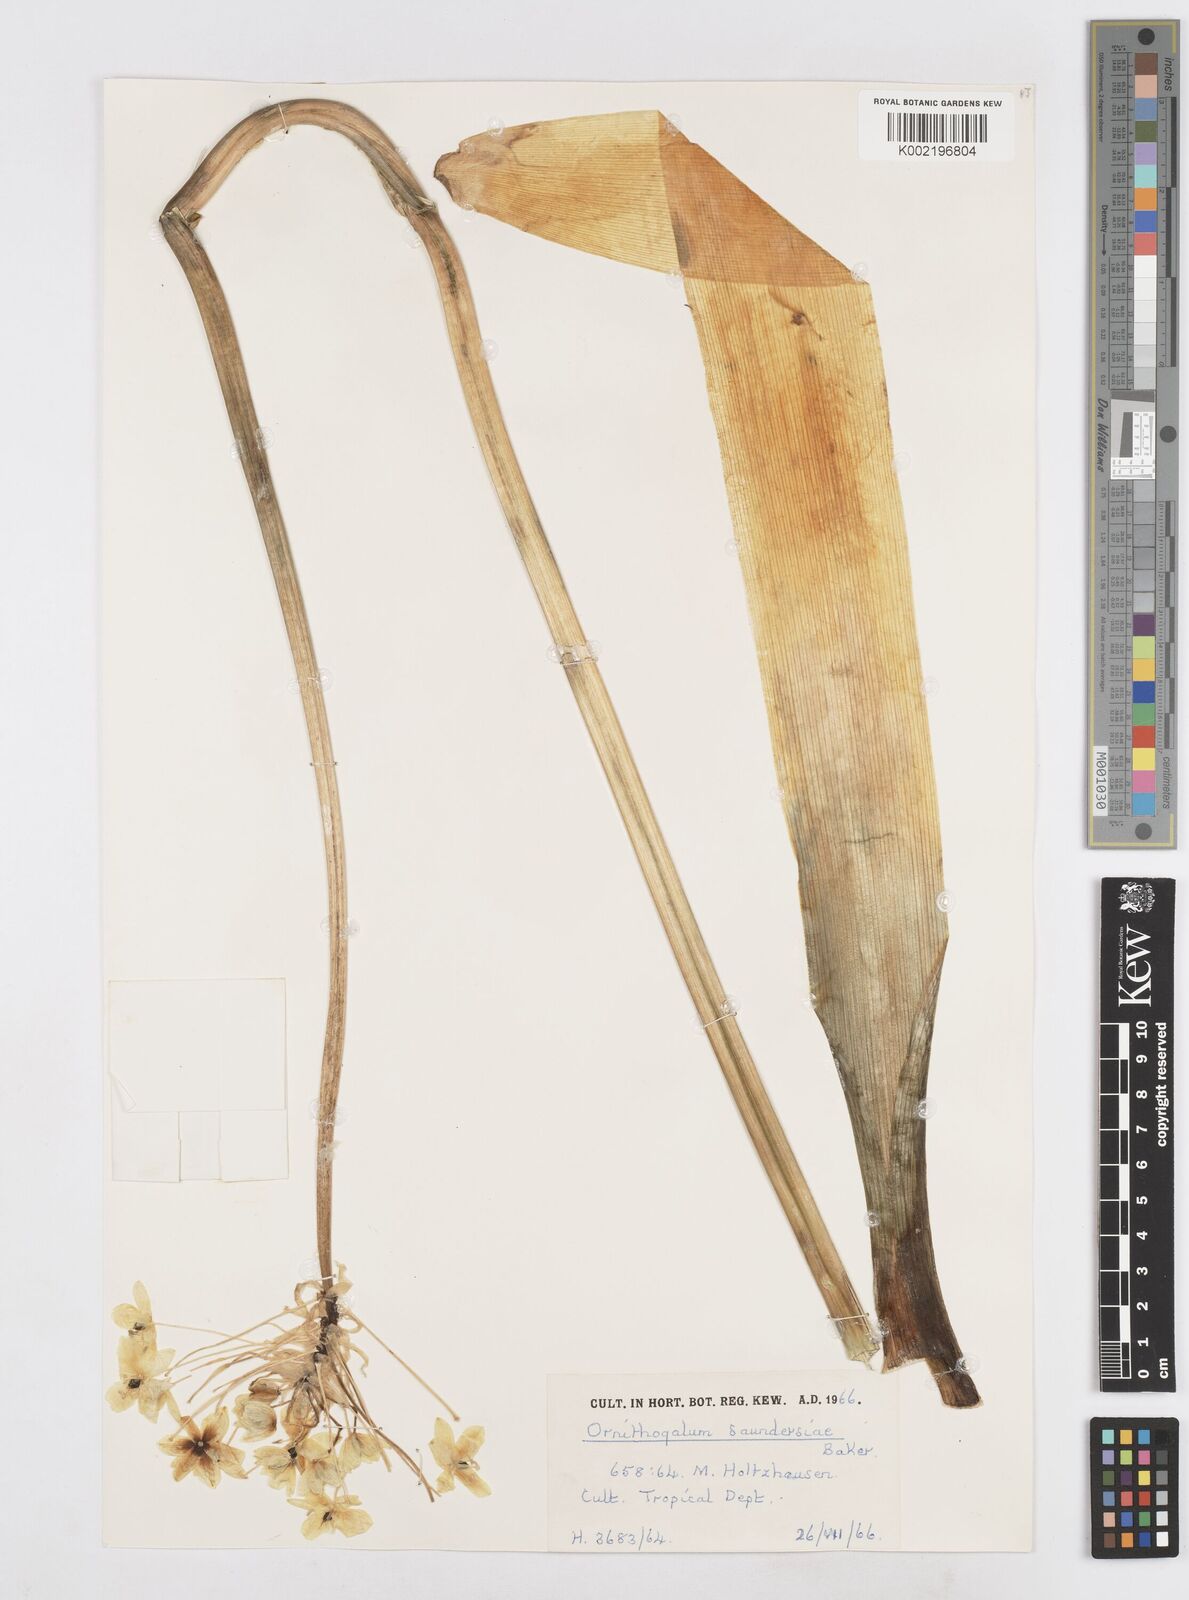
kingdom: Plantae
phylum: Tracheophyta
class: Liliopsida
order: Asparagales
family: Asparagaceae
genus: Ornithogalum
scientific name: Ornithogalum saundersiae
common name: Giant chincherinchee
